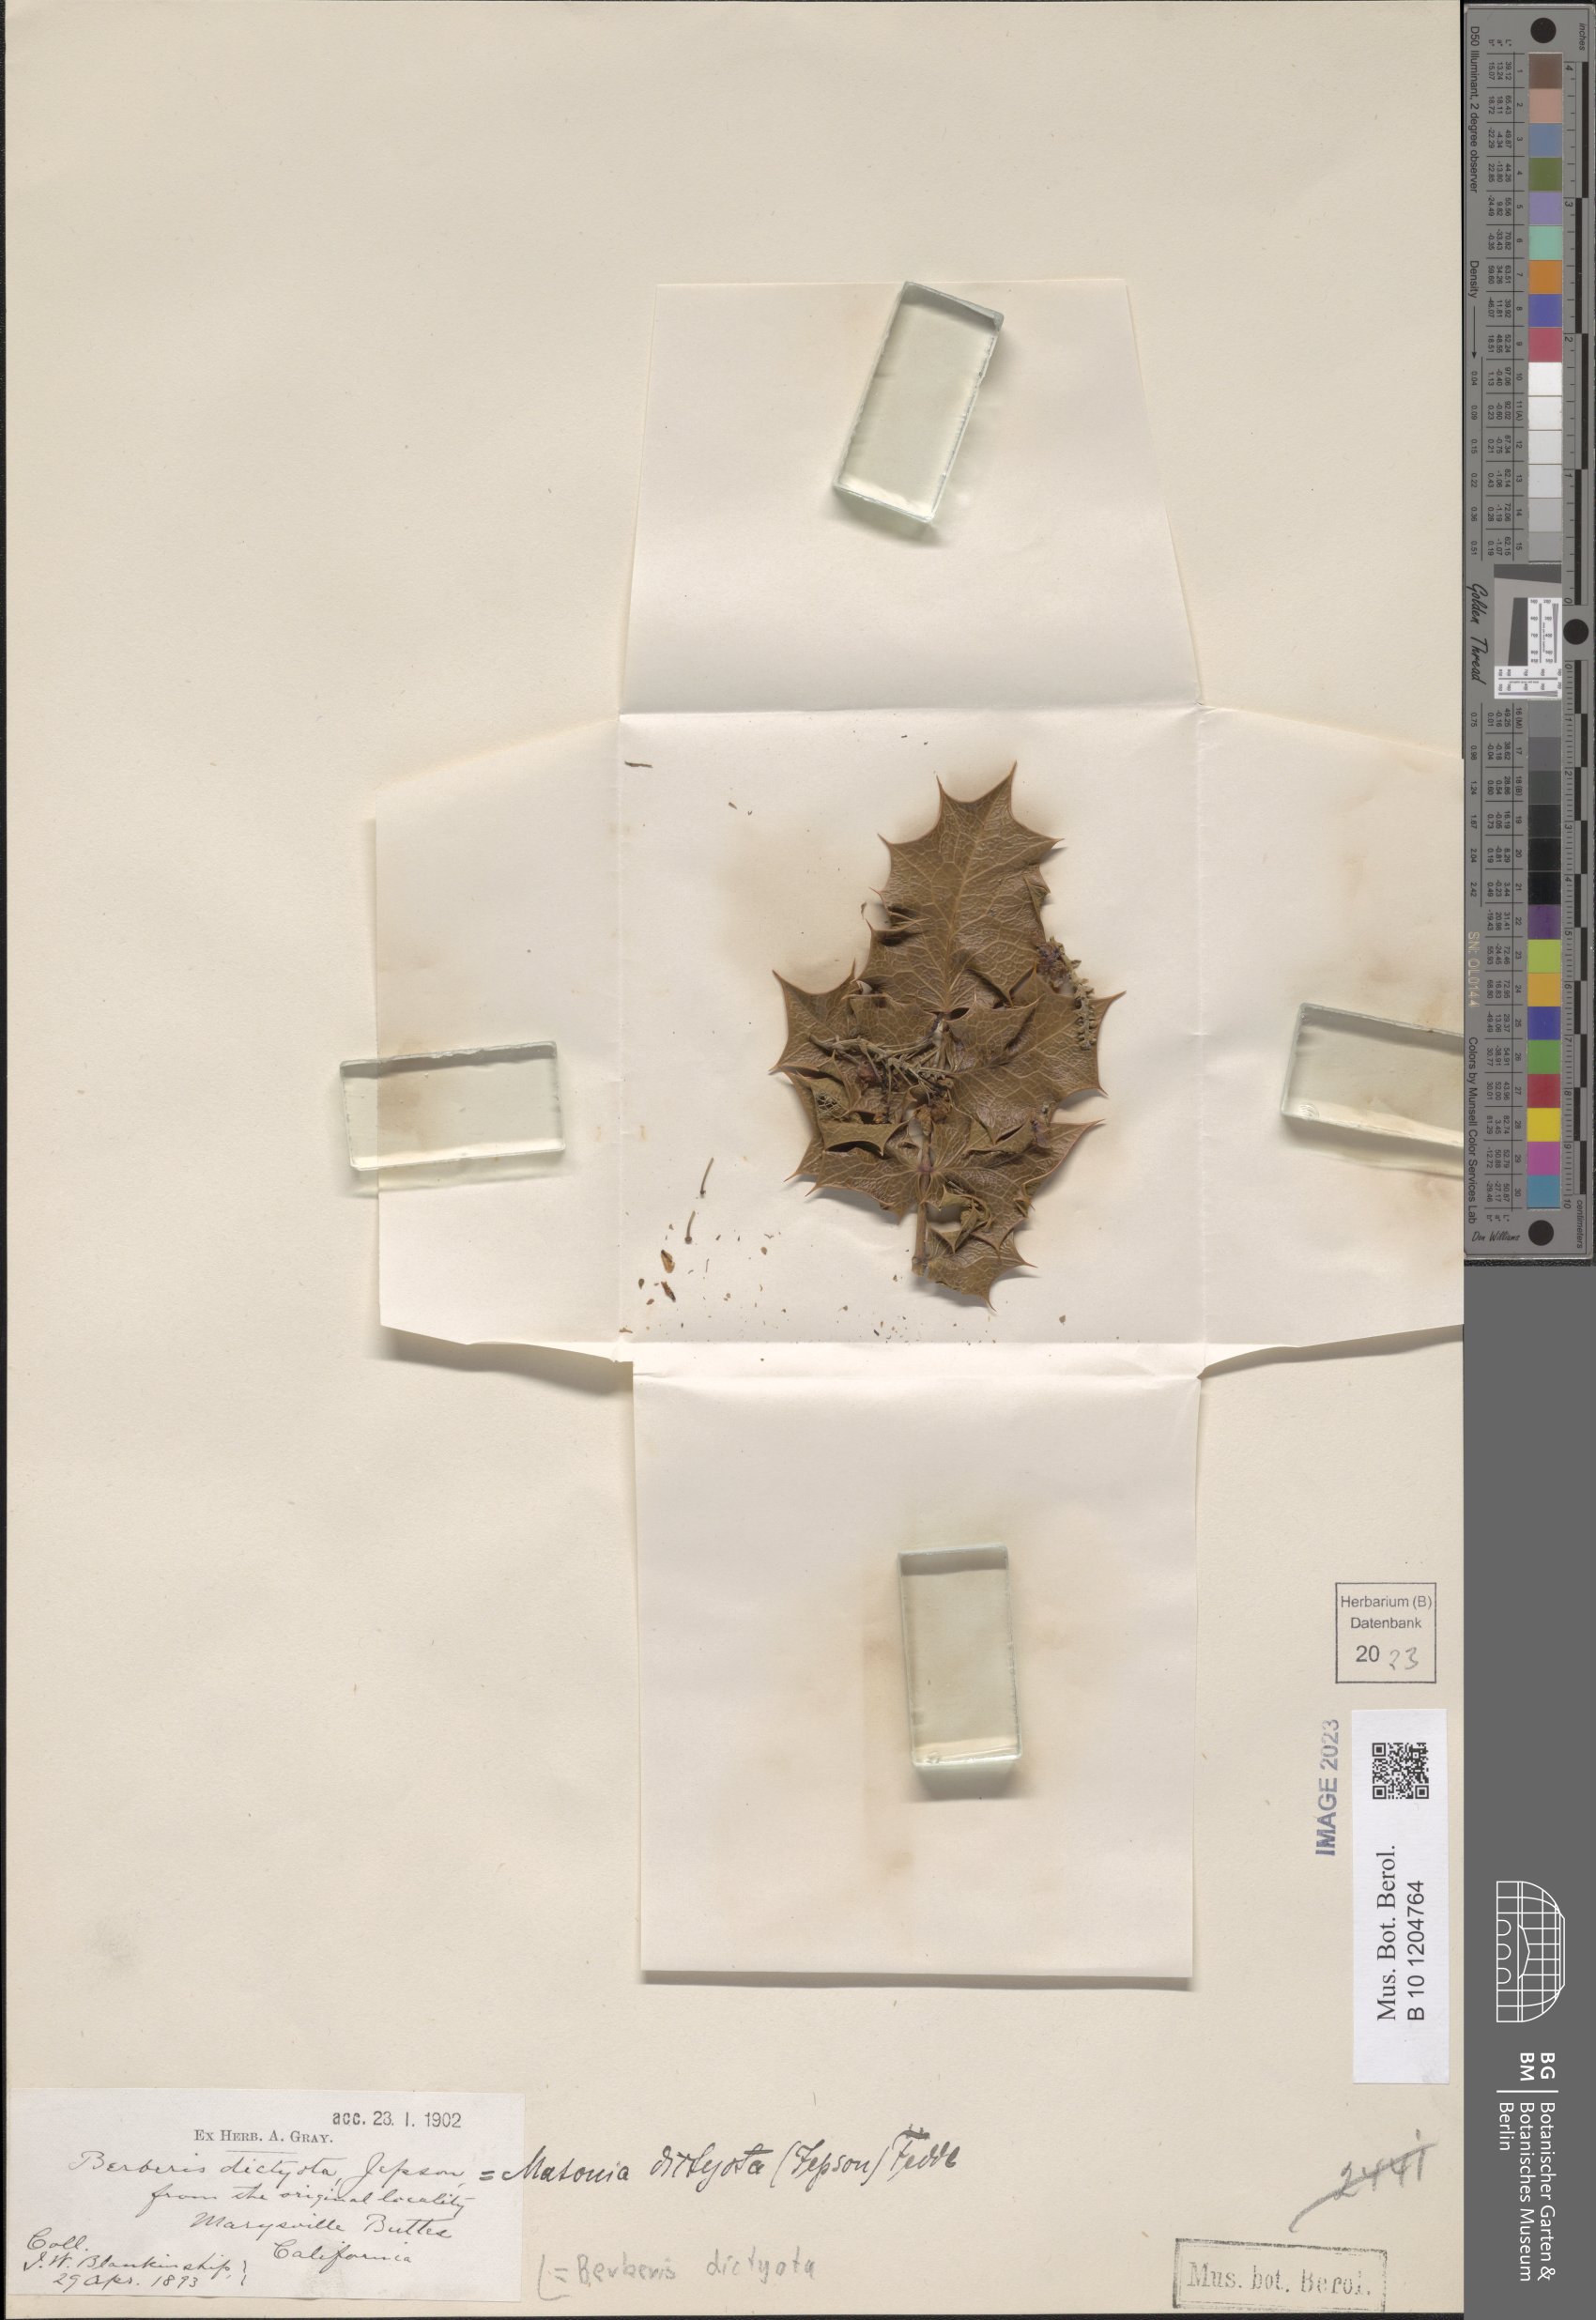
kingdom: Plantae
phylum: Tracheophyta
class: Magnoliopsida
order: Ranunculales
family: Berberidaceae
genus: Mahonia
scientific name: Mahonia dictyota
